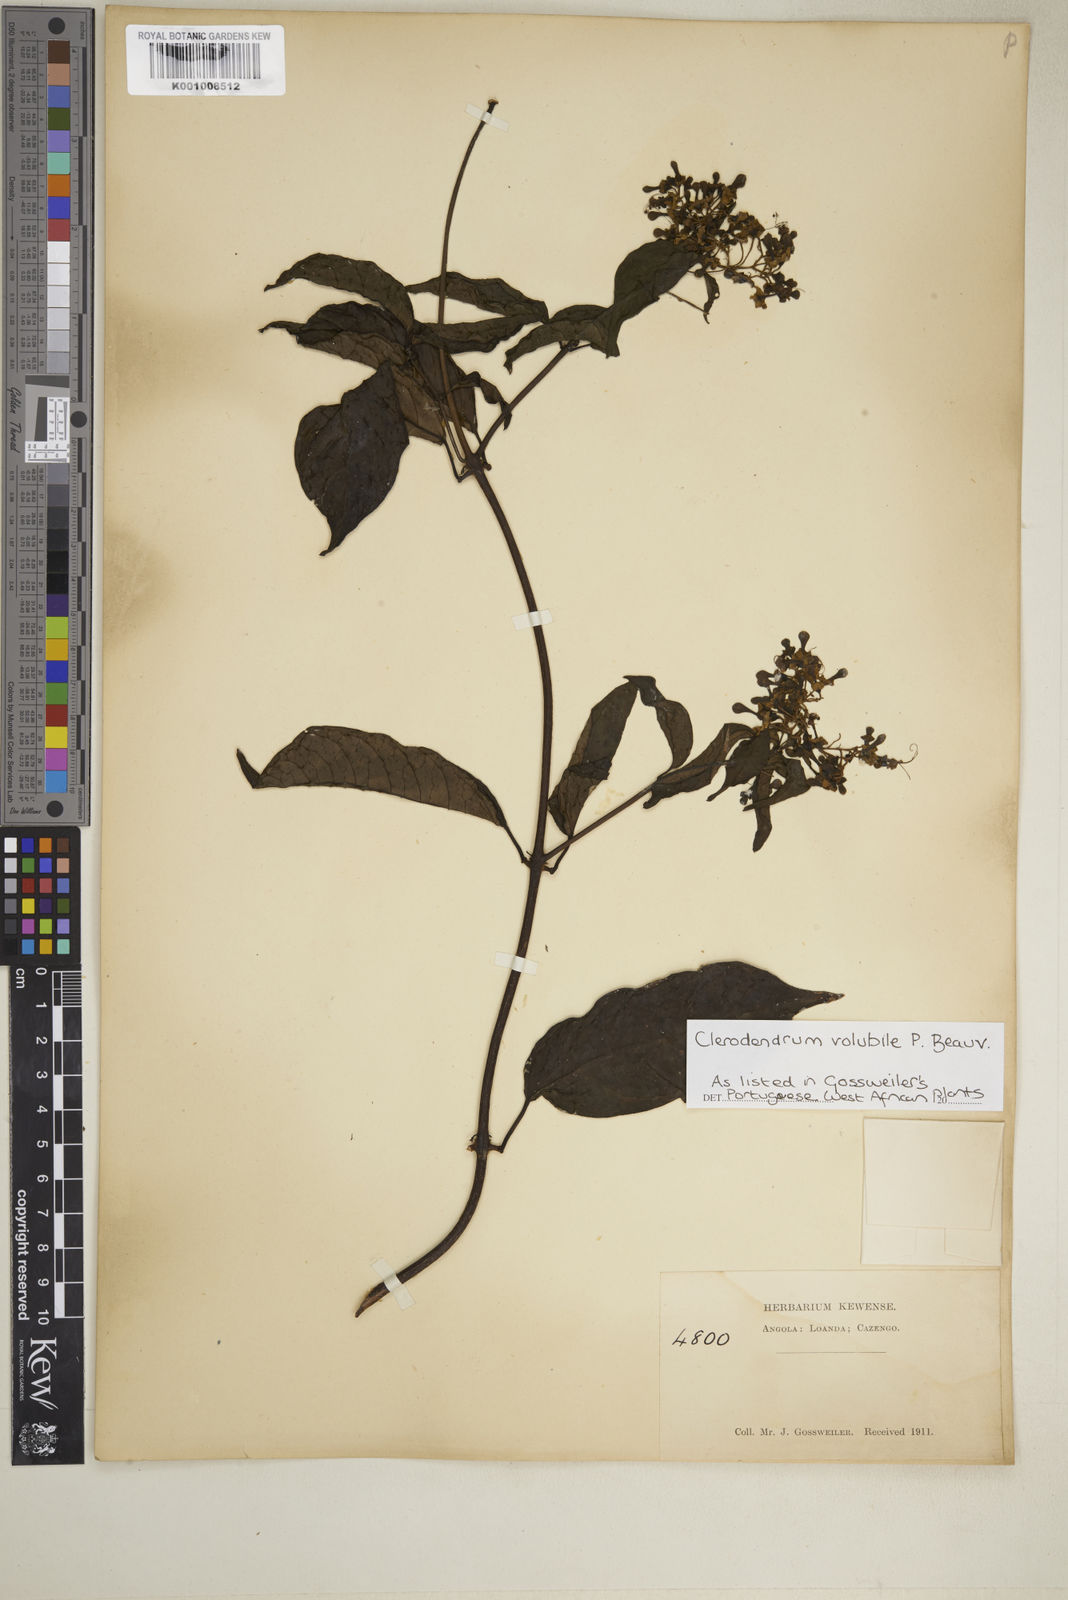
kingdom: Plantae
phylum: Tracheophyta
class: Magnoliopsida
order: Lamiales
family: Lamiaceae
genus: Clerodendrum
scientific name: Clerodendrum volubile
